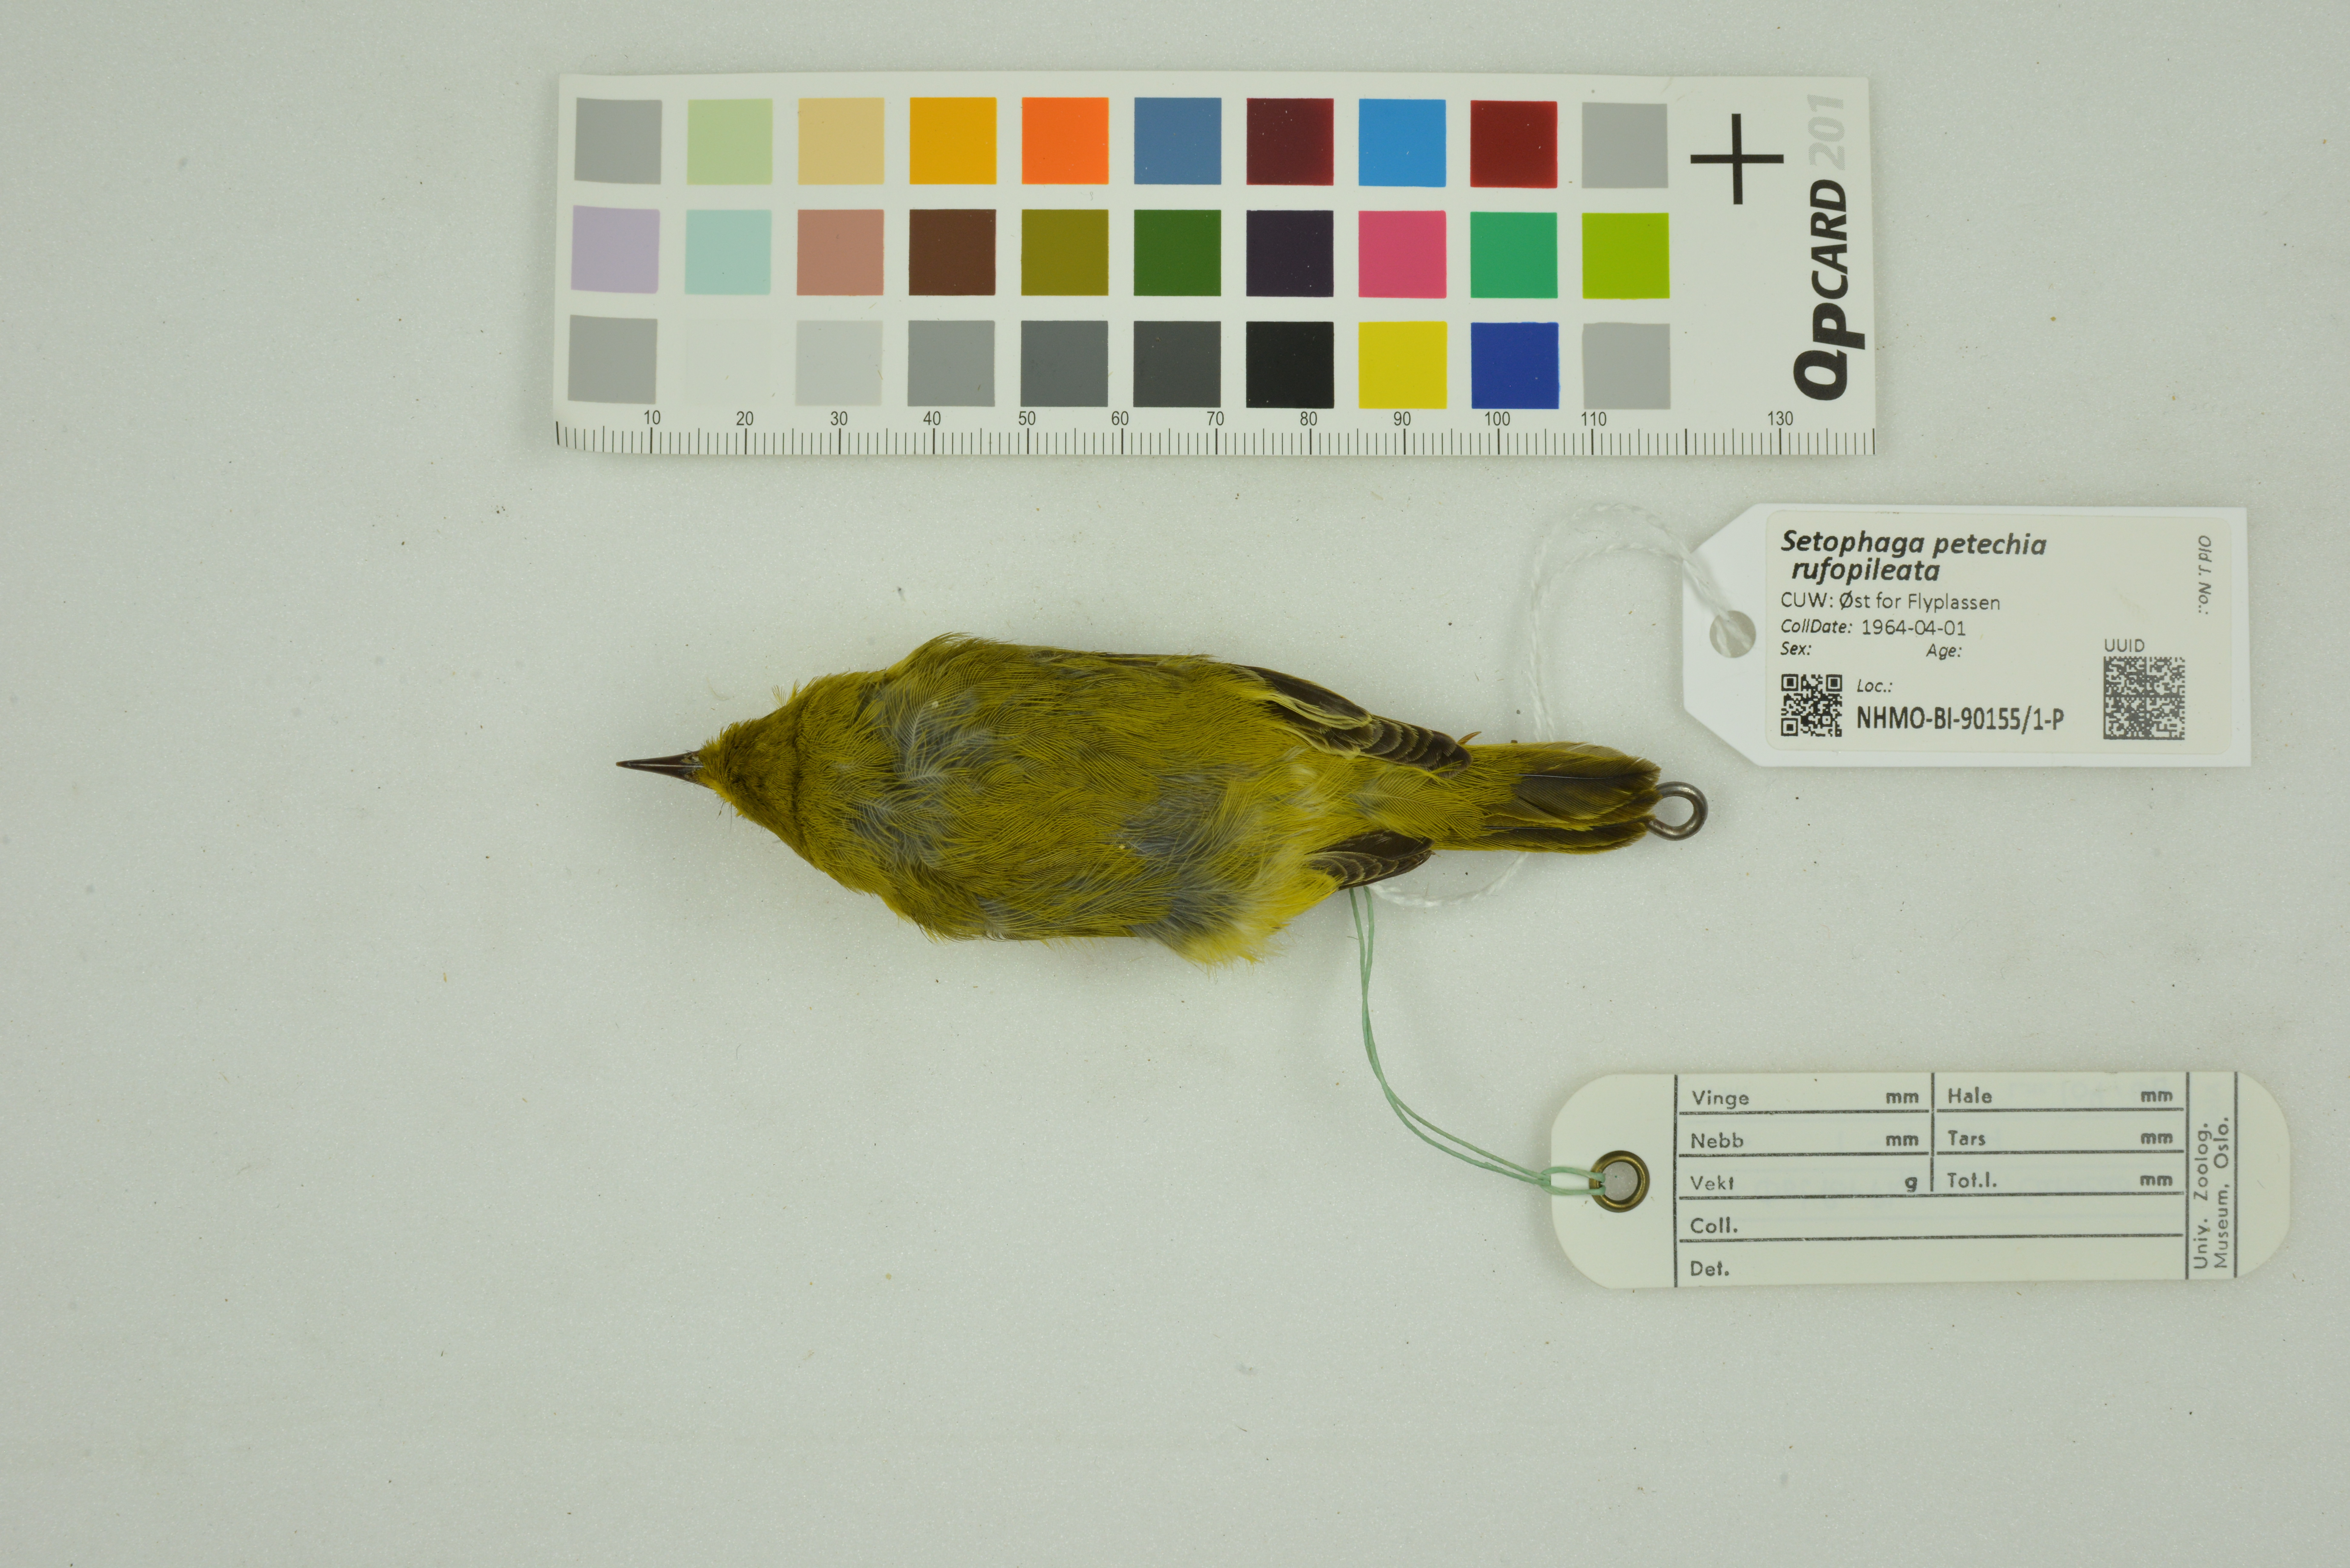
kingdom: Animalia
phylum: Chordata
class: Aves
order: Passeriformes
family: Parulidae
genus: Setophaga
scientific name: Setophaga petechia
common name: Yellow warbler
